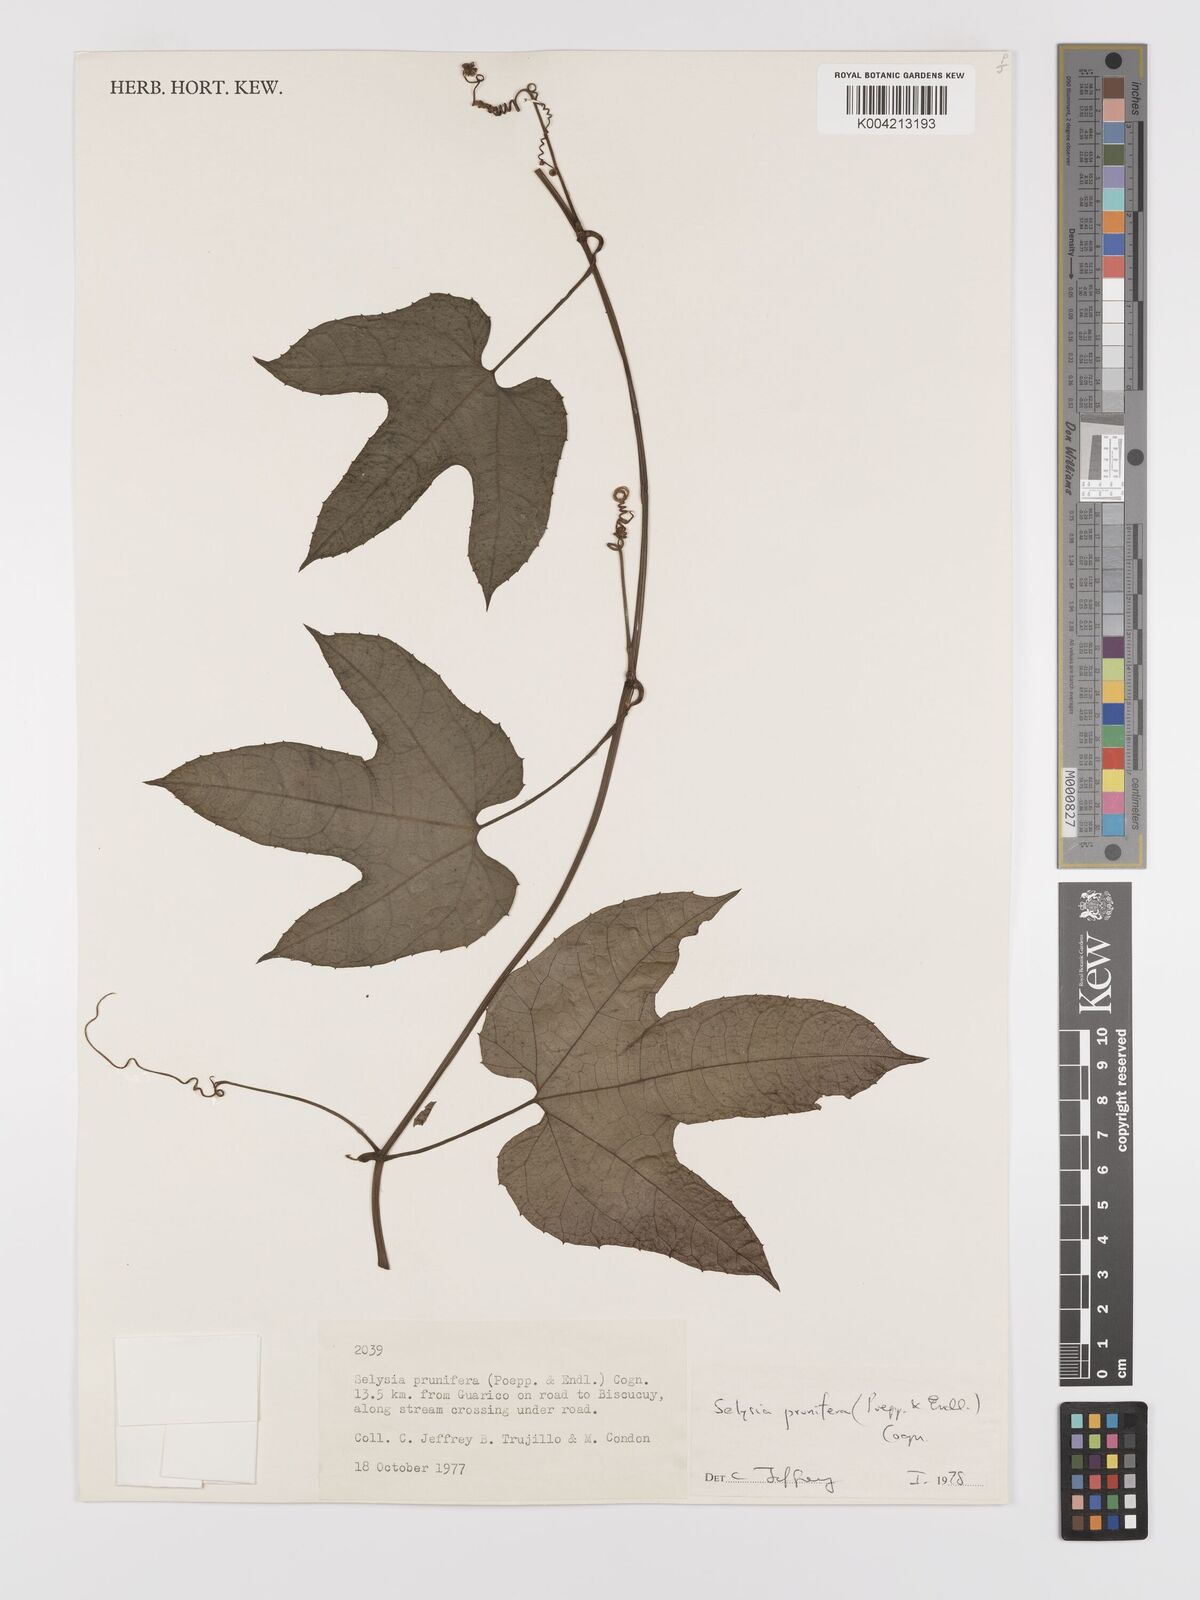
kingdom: Plantae
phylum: Tracheophyta
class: Magnoliopsida
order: Cucurbitales
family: Cucurbitaceae
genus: Cayaponia
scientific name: Cayaponia prunifera
